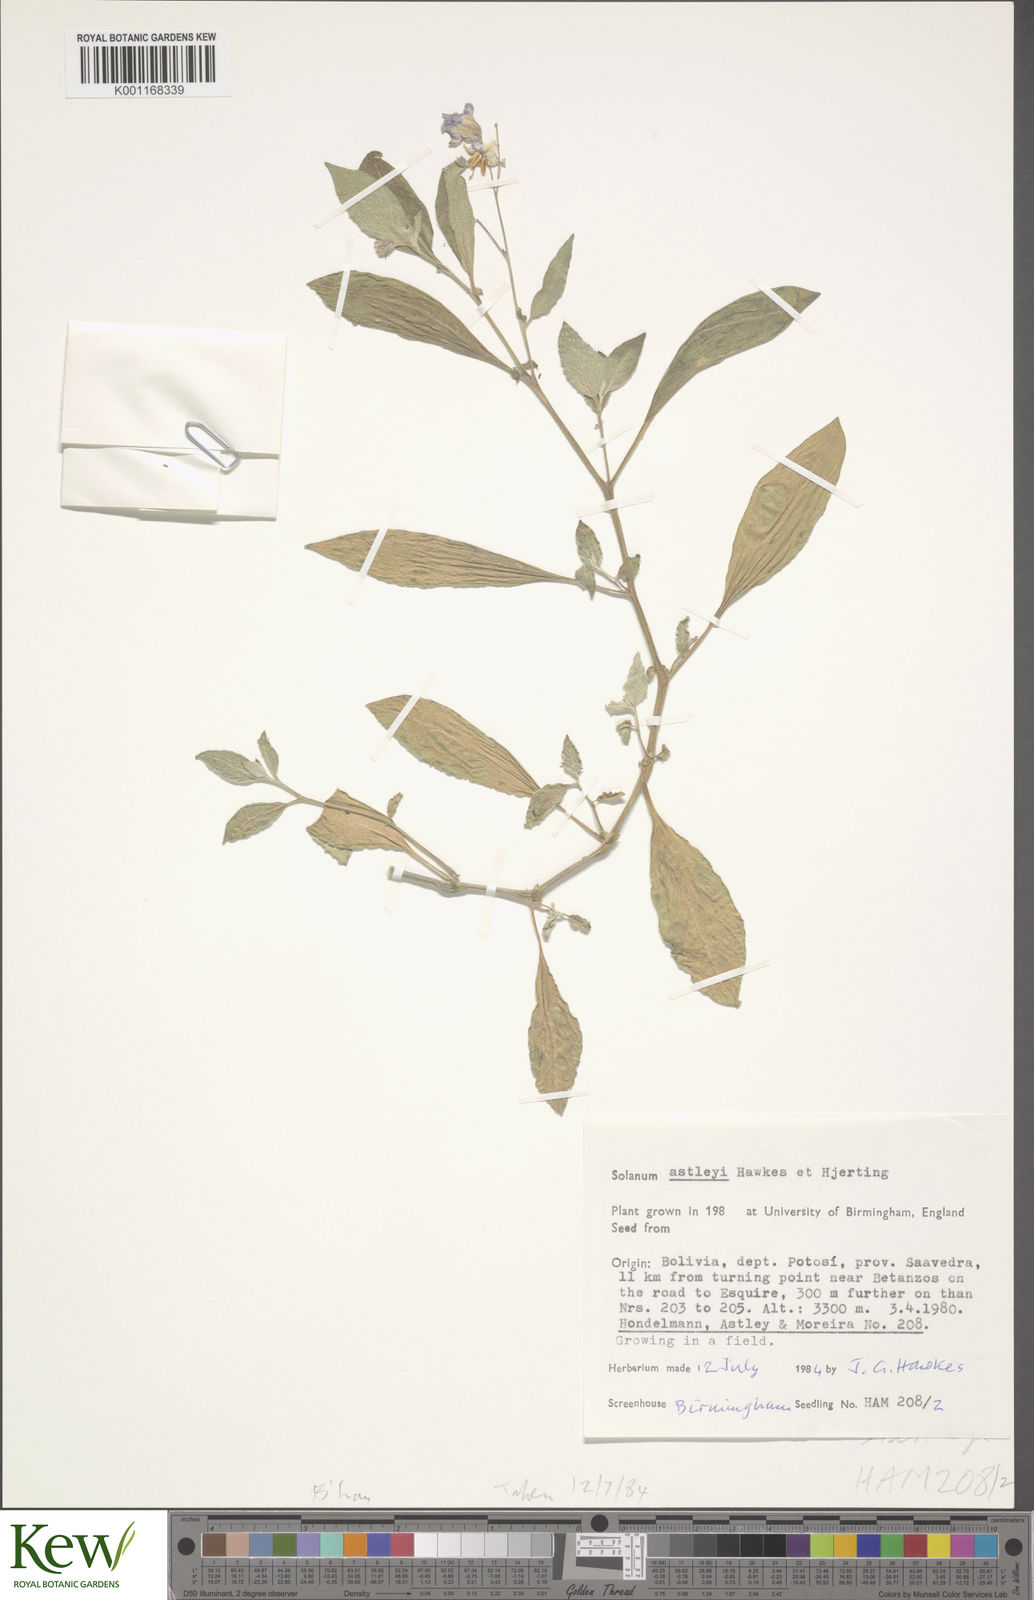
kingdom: Plantae
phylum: Tracheophyta
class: Magnoliopsida
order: Solanales
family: Solanaceae
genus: Solanum
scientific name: Solanum boliviense
